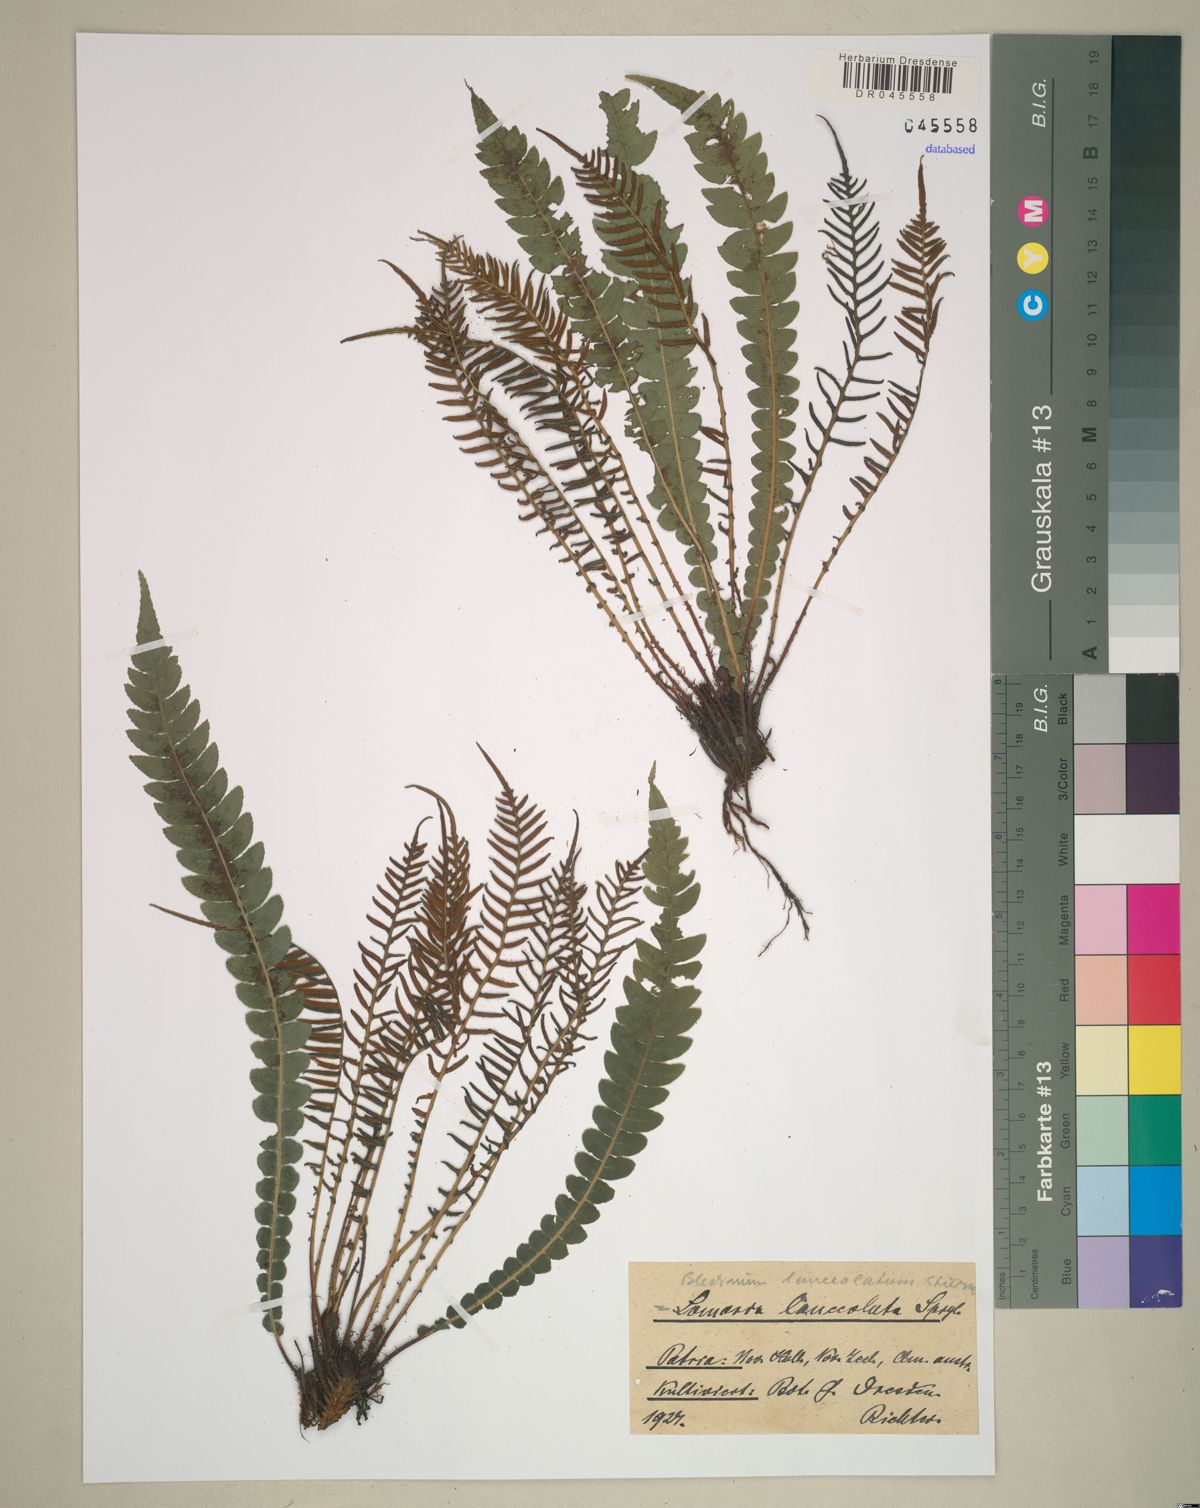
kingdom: Plantae
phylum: Tracheophyta
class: Polypodiopsida
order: Polypodiales
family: Blechnaceae
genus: Blechnum
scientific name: Blechnum lanceola
